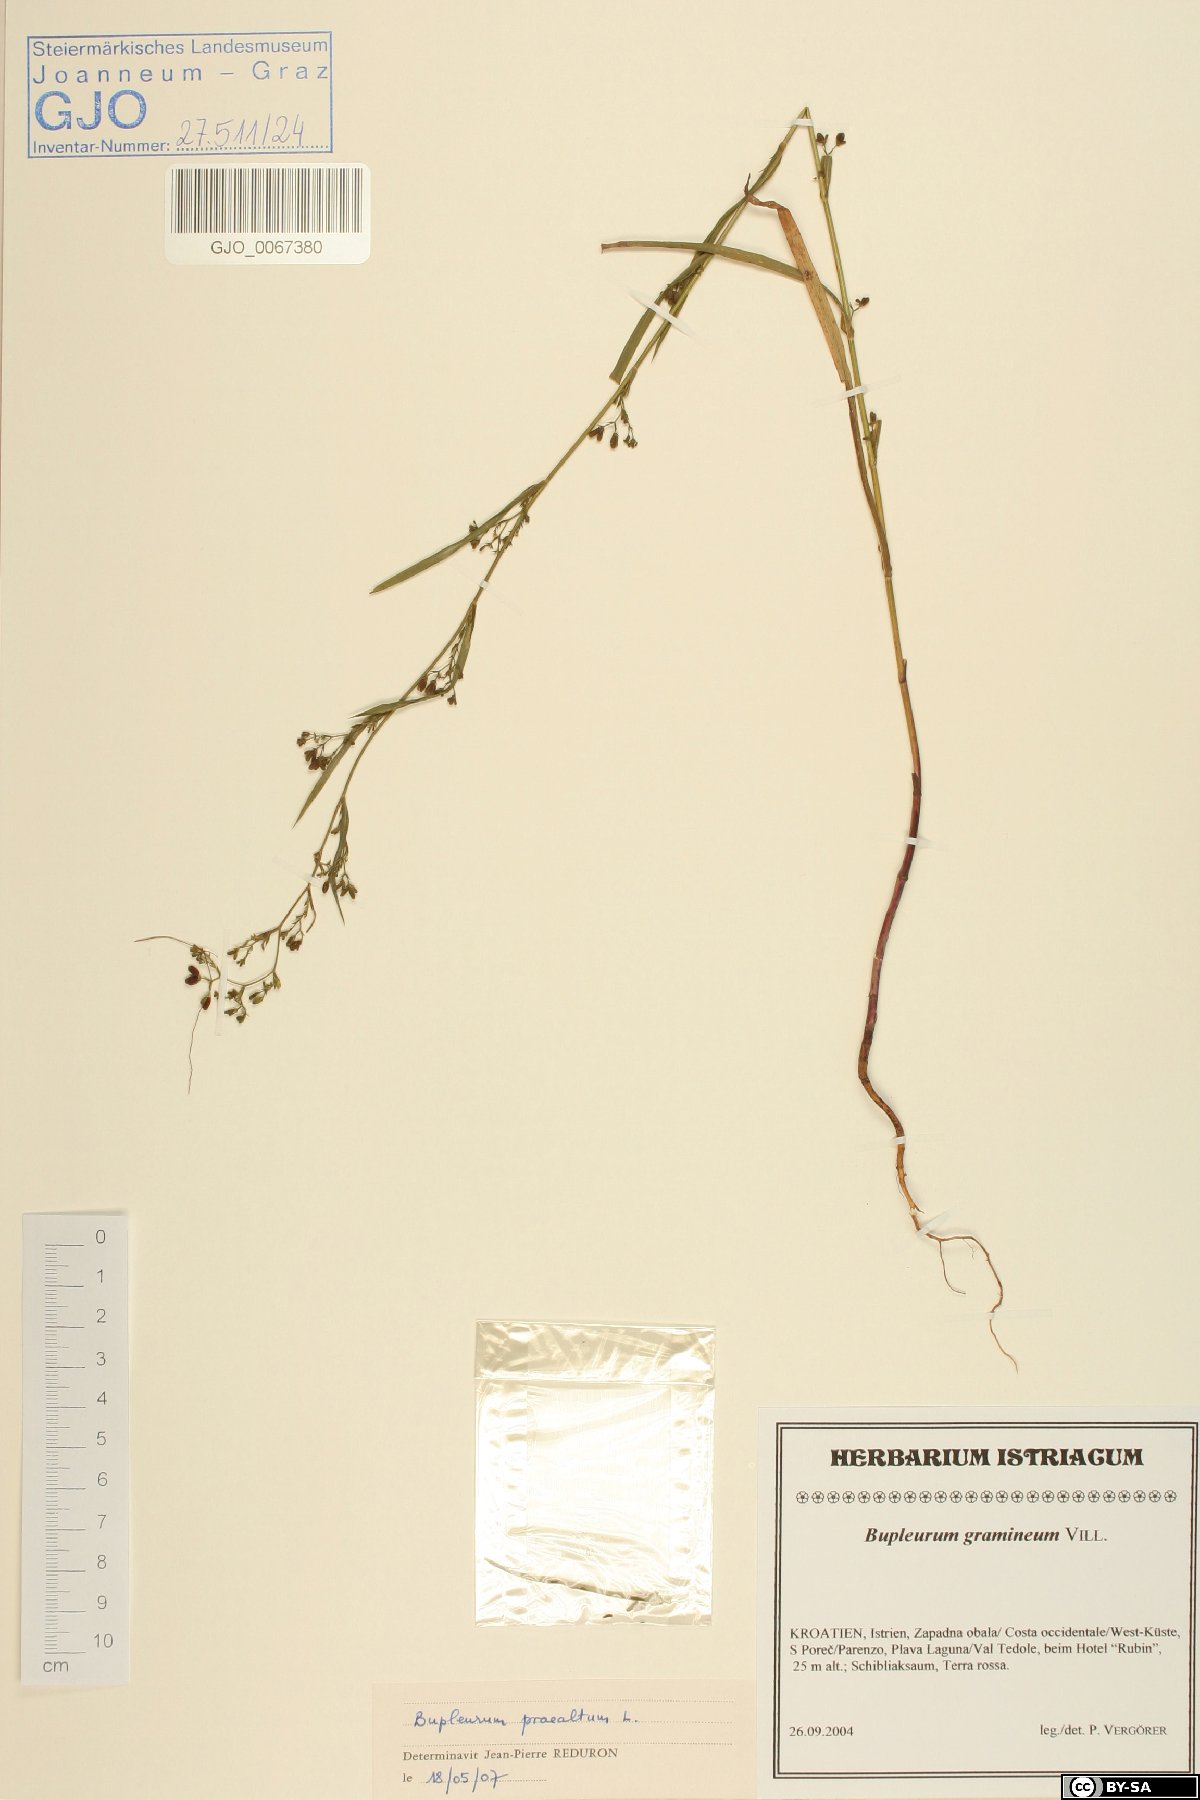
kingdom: Plantae
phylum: Tracheophyta
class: Magnoliopsida
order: Apiales
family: Apiaceae
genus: Bupleurum
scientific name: Bupleurum praealtum
